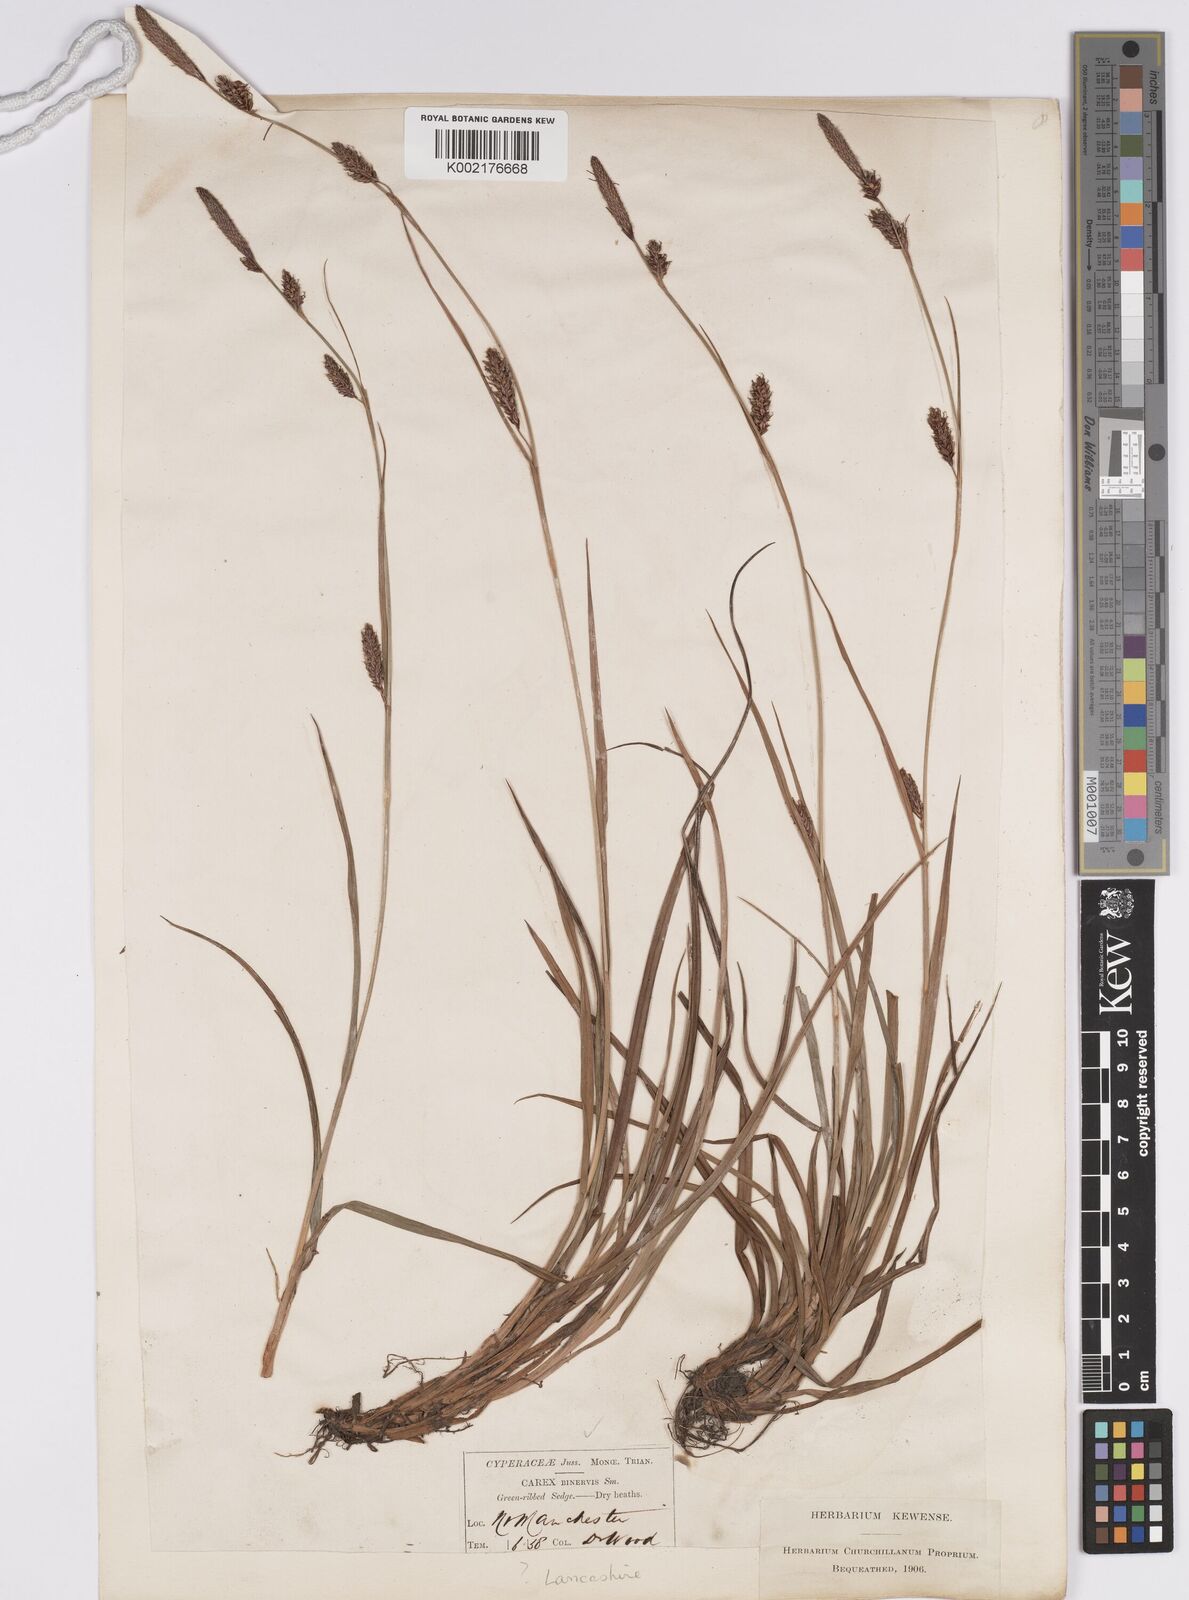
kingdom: Plantae
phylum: Tracheophyta
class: Liliopsida
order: Poales
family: Cyperaceae
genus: Carex
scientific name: Carex binervis
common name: Green-ribbed sedge
